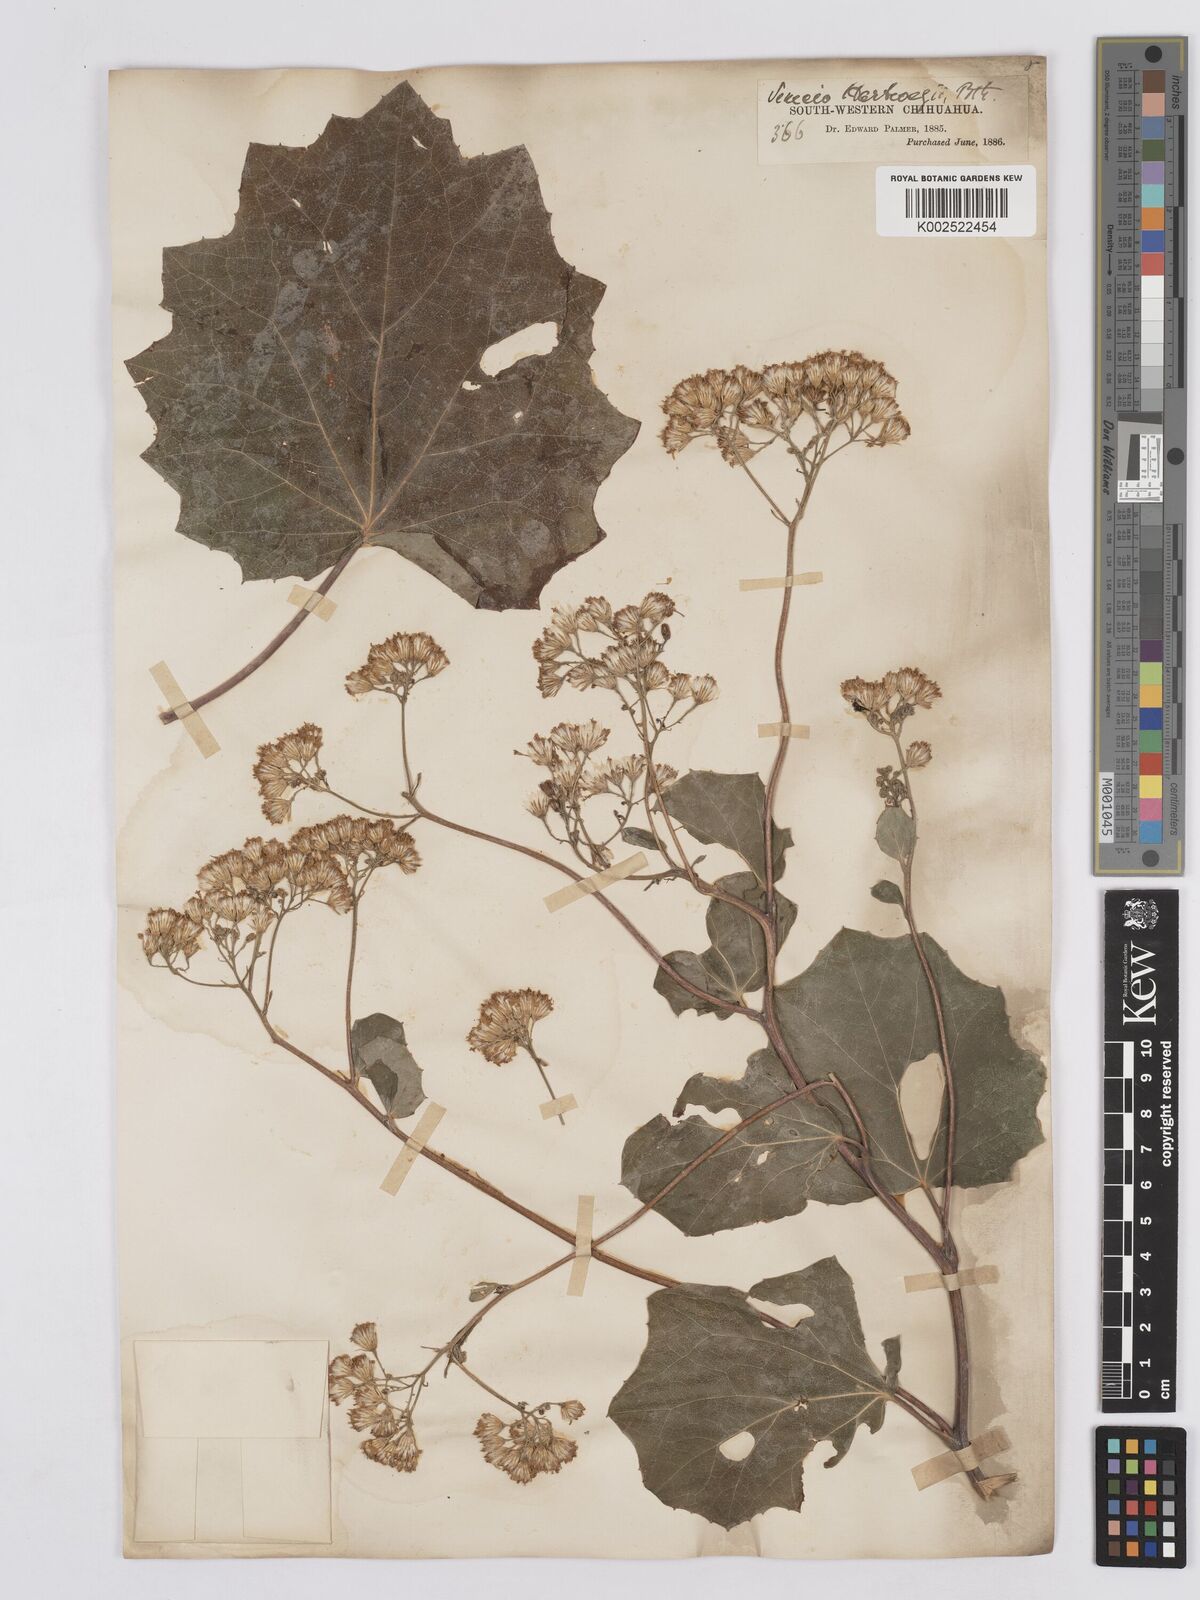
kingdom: Plantae
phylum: Tracheophyta
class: Magnoliopsida
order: Asterales
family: Asteraceae
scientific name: Asteraceae
